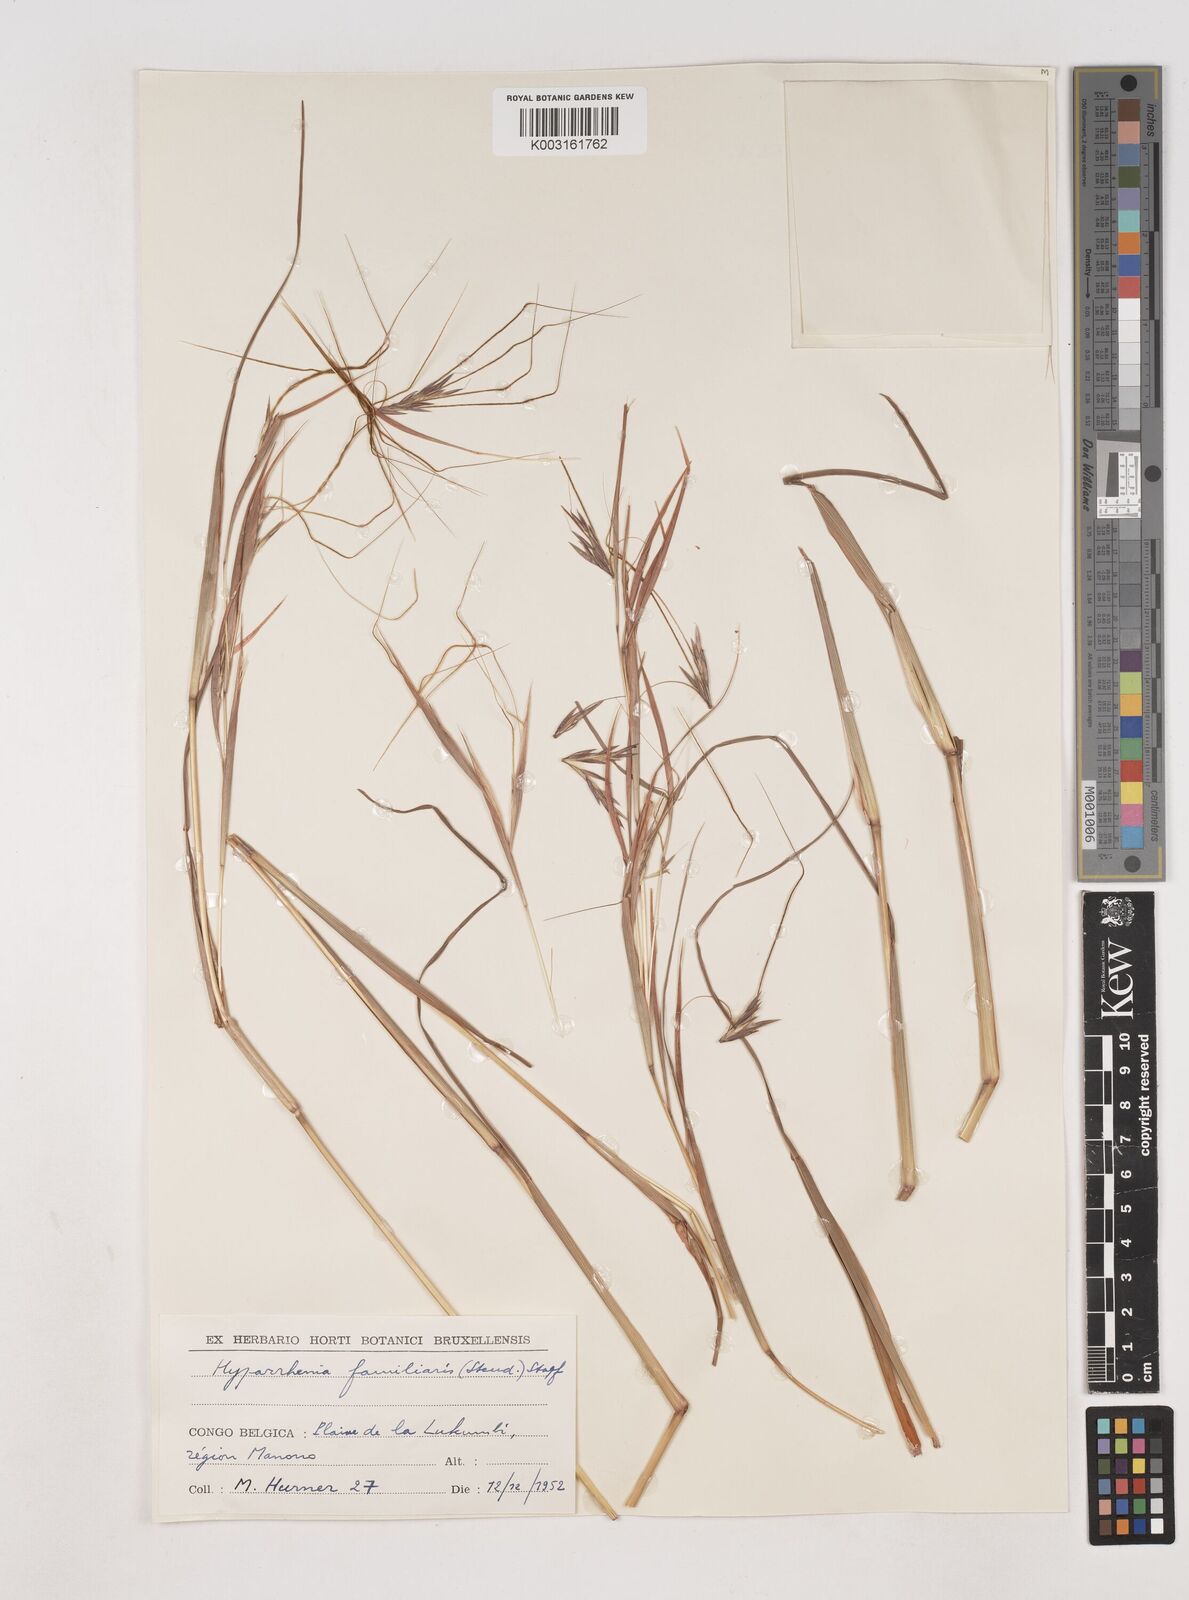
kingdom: Plantae
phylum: Tracheophyta
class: Liliopsida
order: Poales
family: Poaceae
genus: Hyparrhenia
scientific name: Hyparrhenia familiaris
